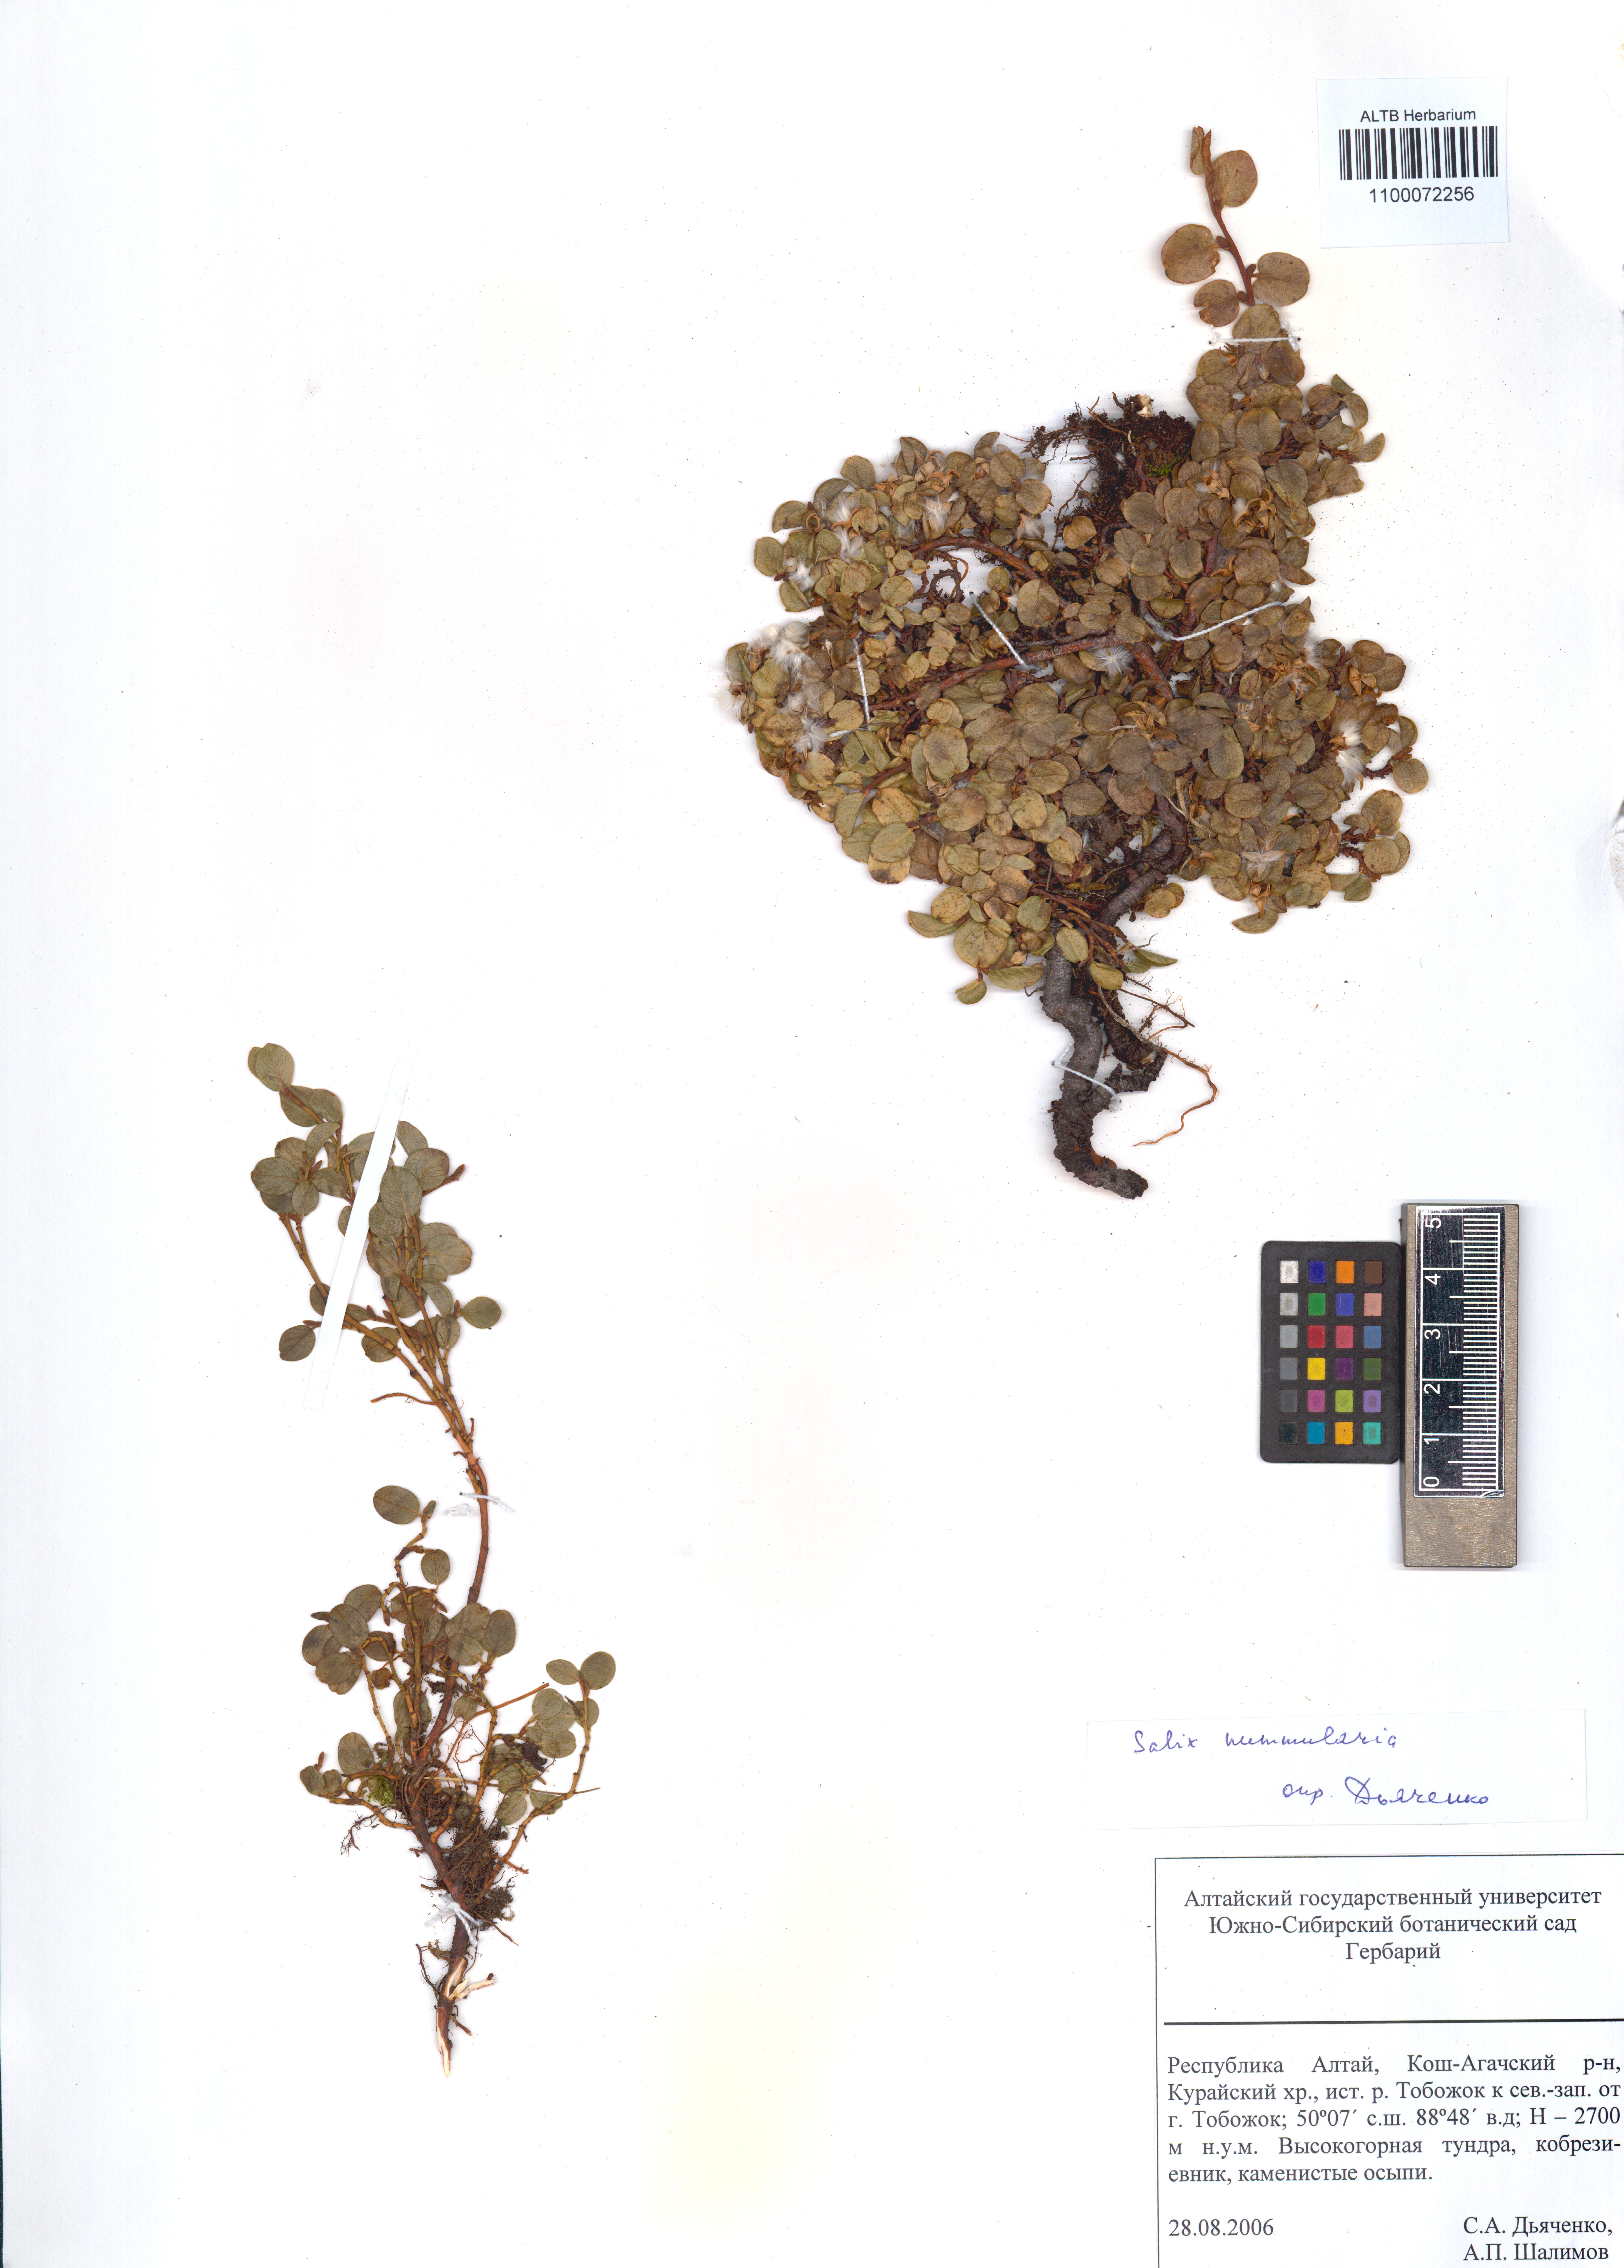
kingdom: Plantae
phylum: Tracheophyta
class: Magnoliopsida
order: Malpighiales
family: Salicaceae
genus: Salix
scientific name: Salix nummularia
